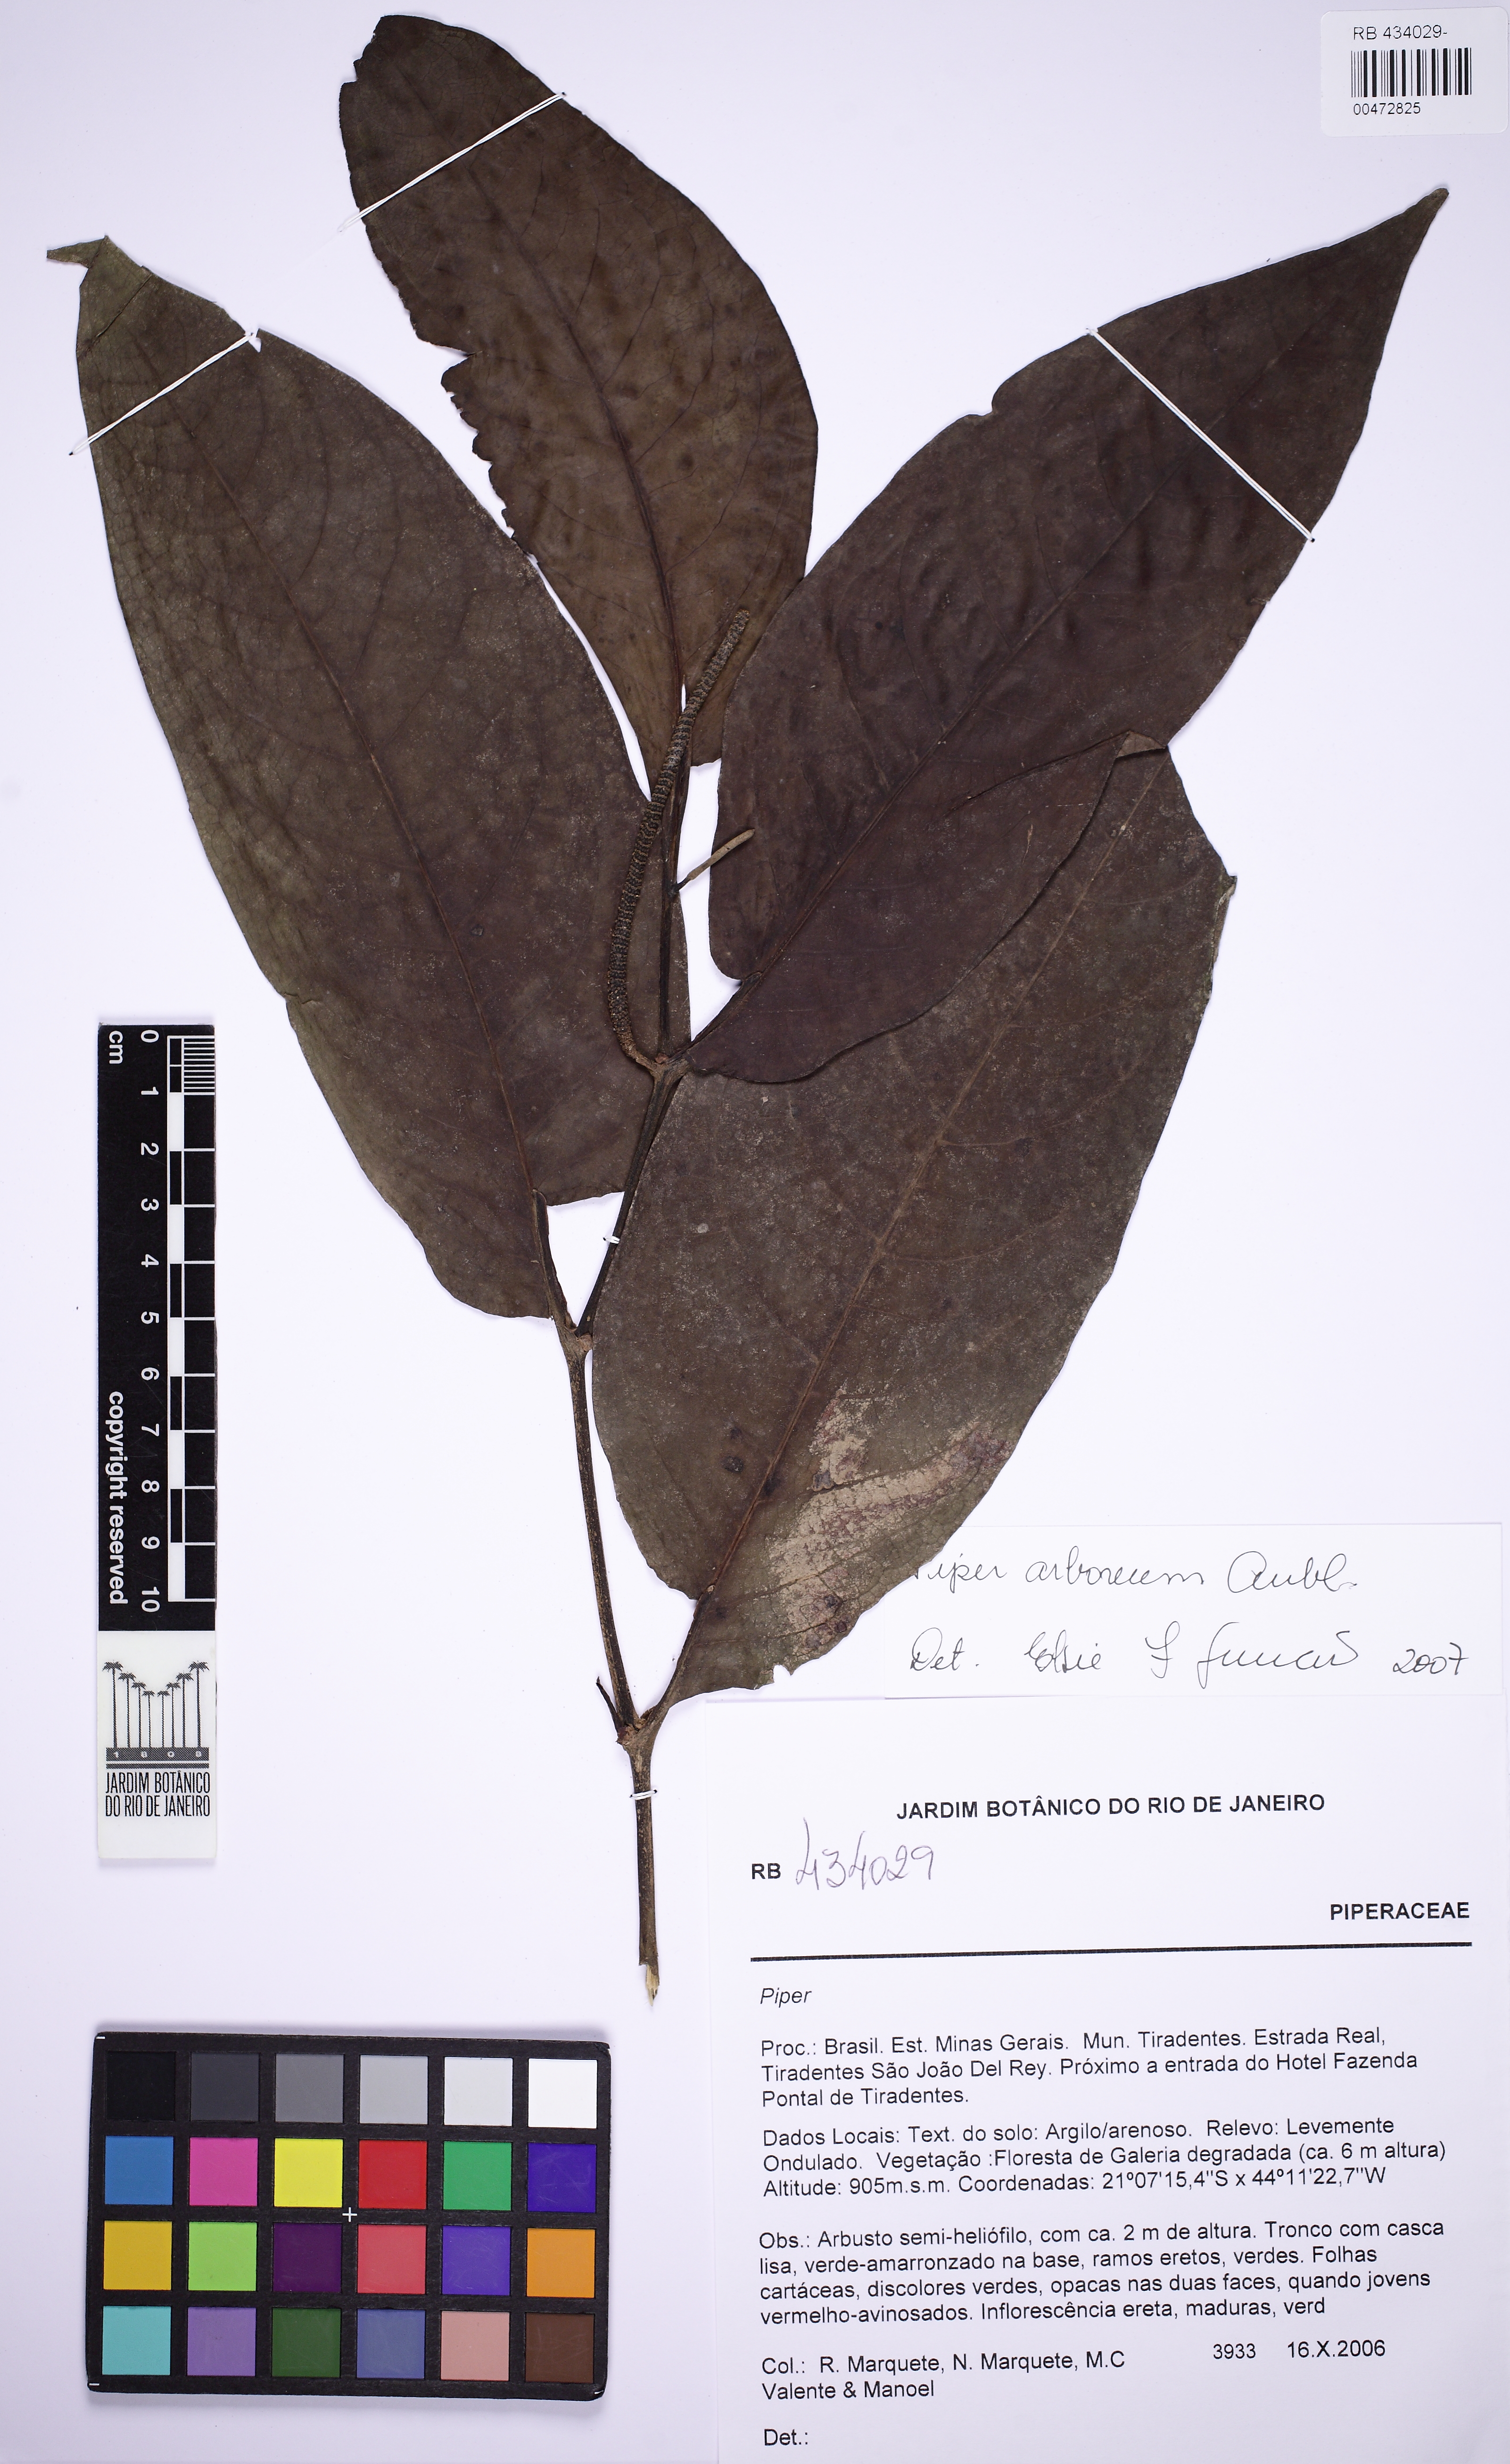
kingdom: Plantae
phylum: Tracheophyta
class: Magnoliopsida
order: Piperales
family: Piperaceae
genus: Piper
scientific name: Piper arboreum
